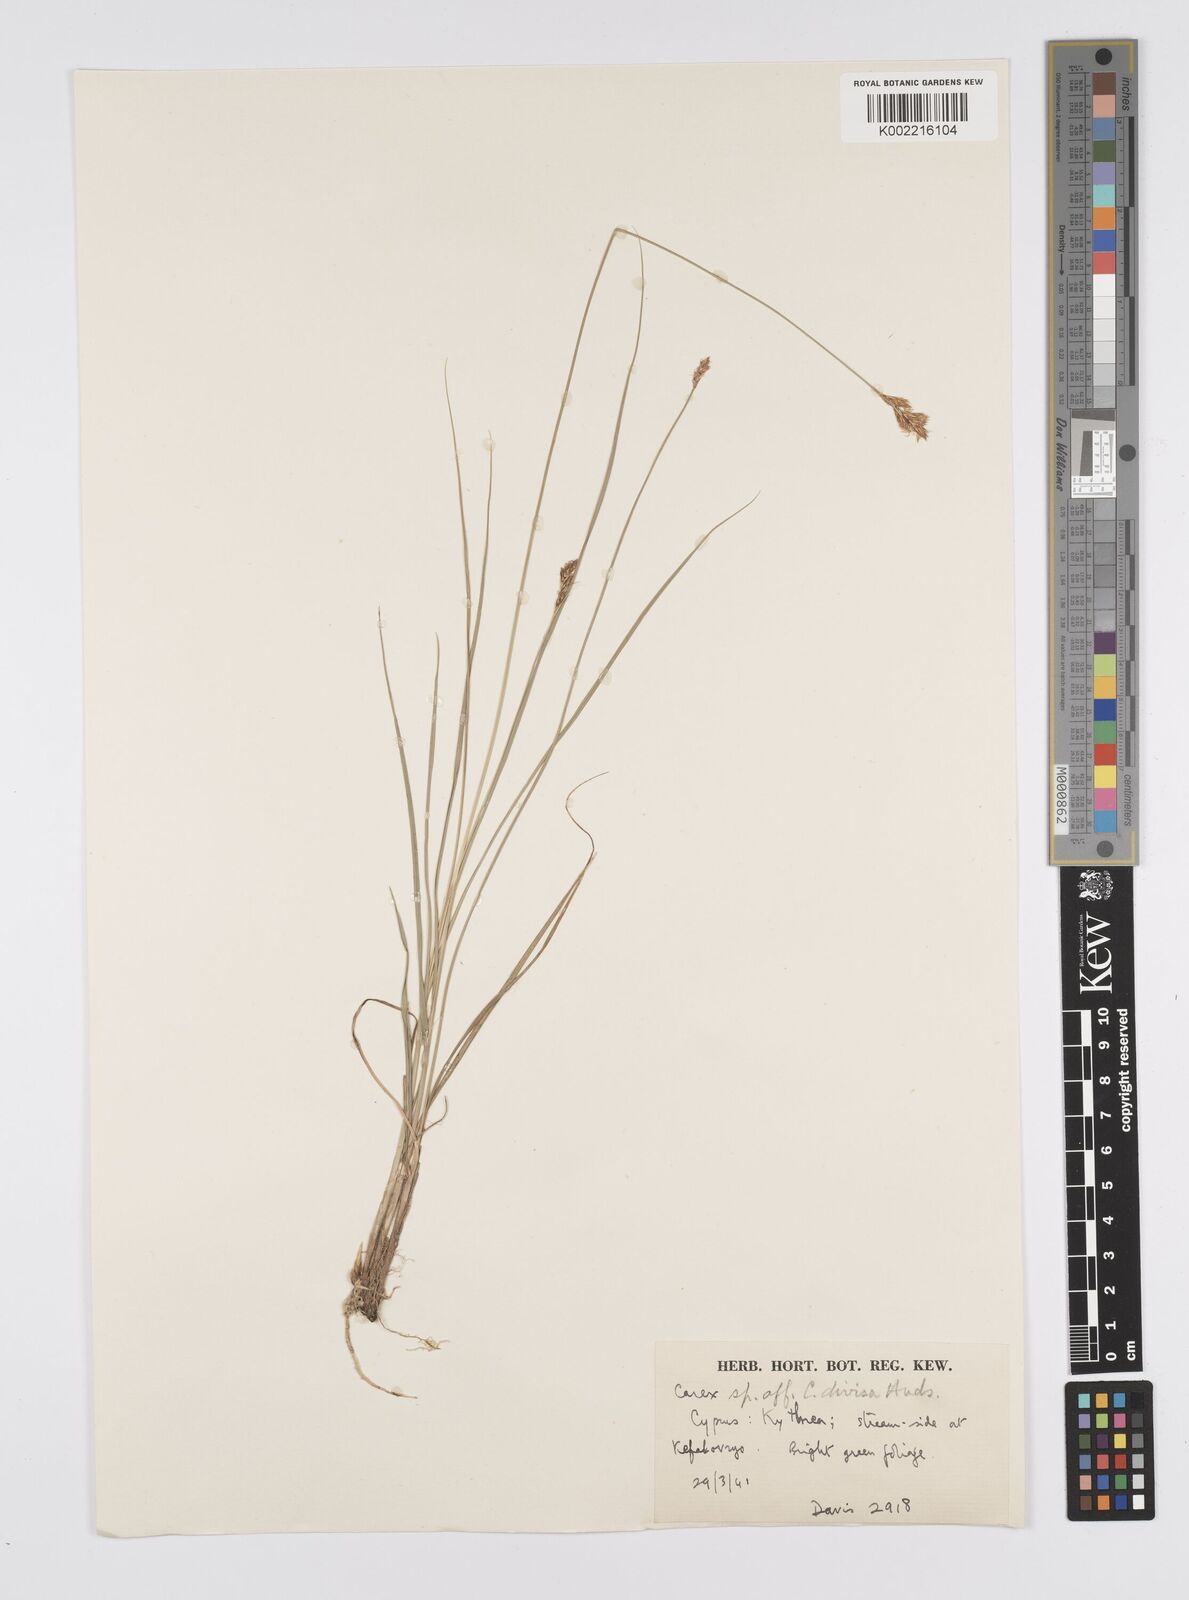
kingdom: Plantae
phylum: Tracheophyta
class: Liliopsida
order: Poales
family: Cyperaceae
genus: Carex
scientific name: Carex divisa
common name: Divided sedge
